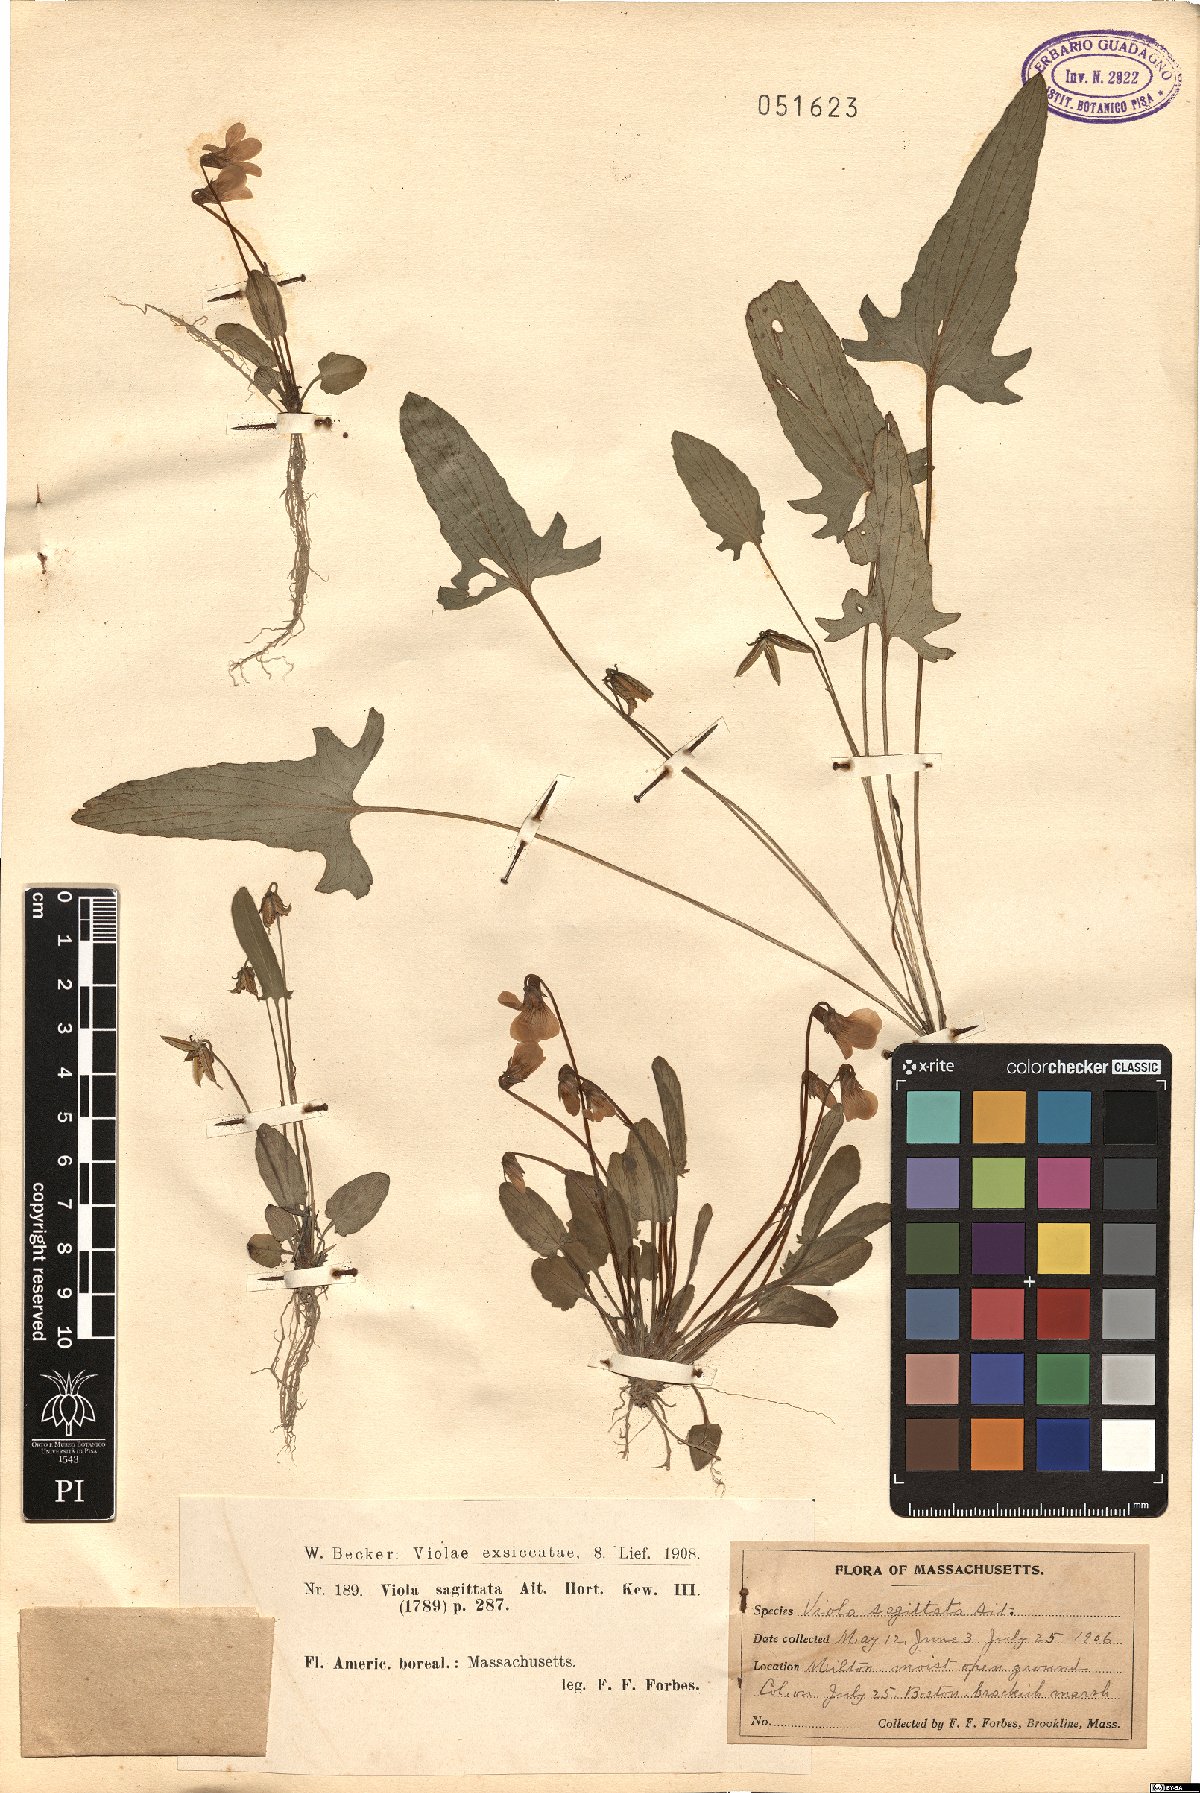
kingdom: Plantae
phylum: Tracheophyta
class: Magnoliopsida
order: Malpighiales
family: Violaceae
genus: Viola
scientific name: Viola sagittata
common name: Arrowhead violet
